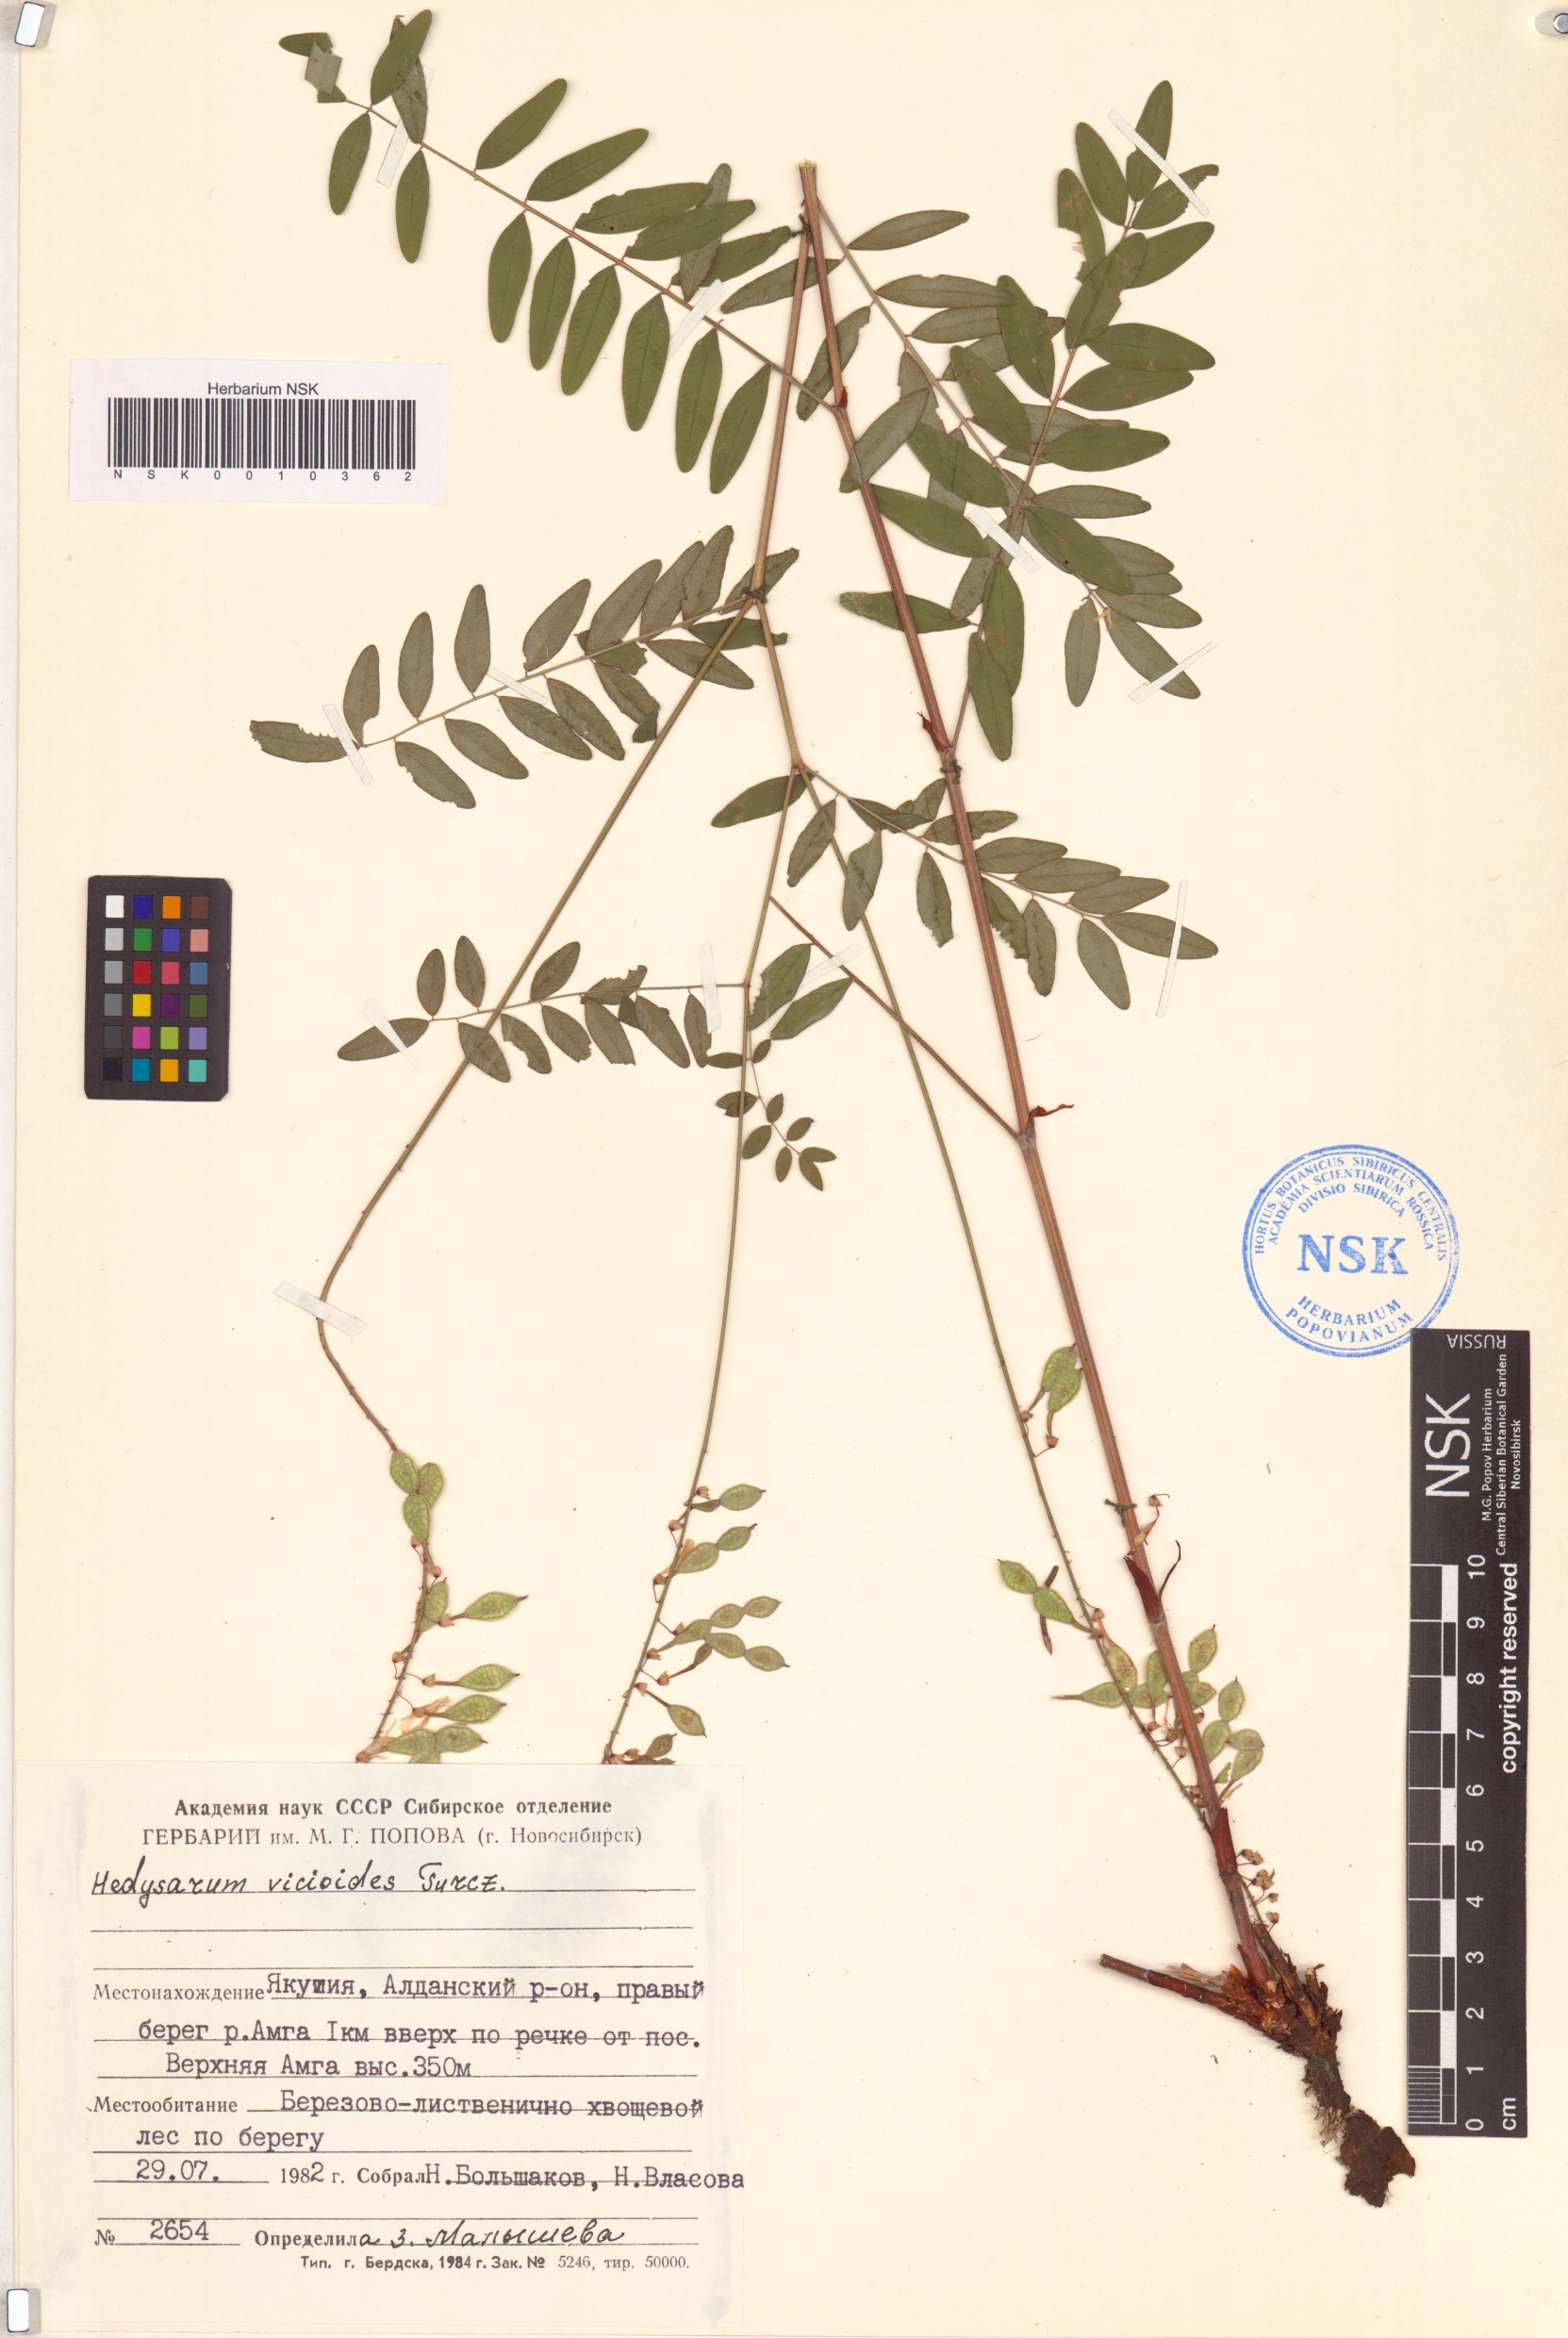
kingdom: Plantae
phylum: Tracheophyta
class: Magnoliopsida
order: Fabales
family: Fabaceae
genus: Hedysarum
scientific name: Hedysarum vicioides
